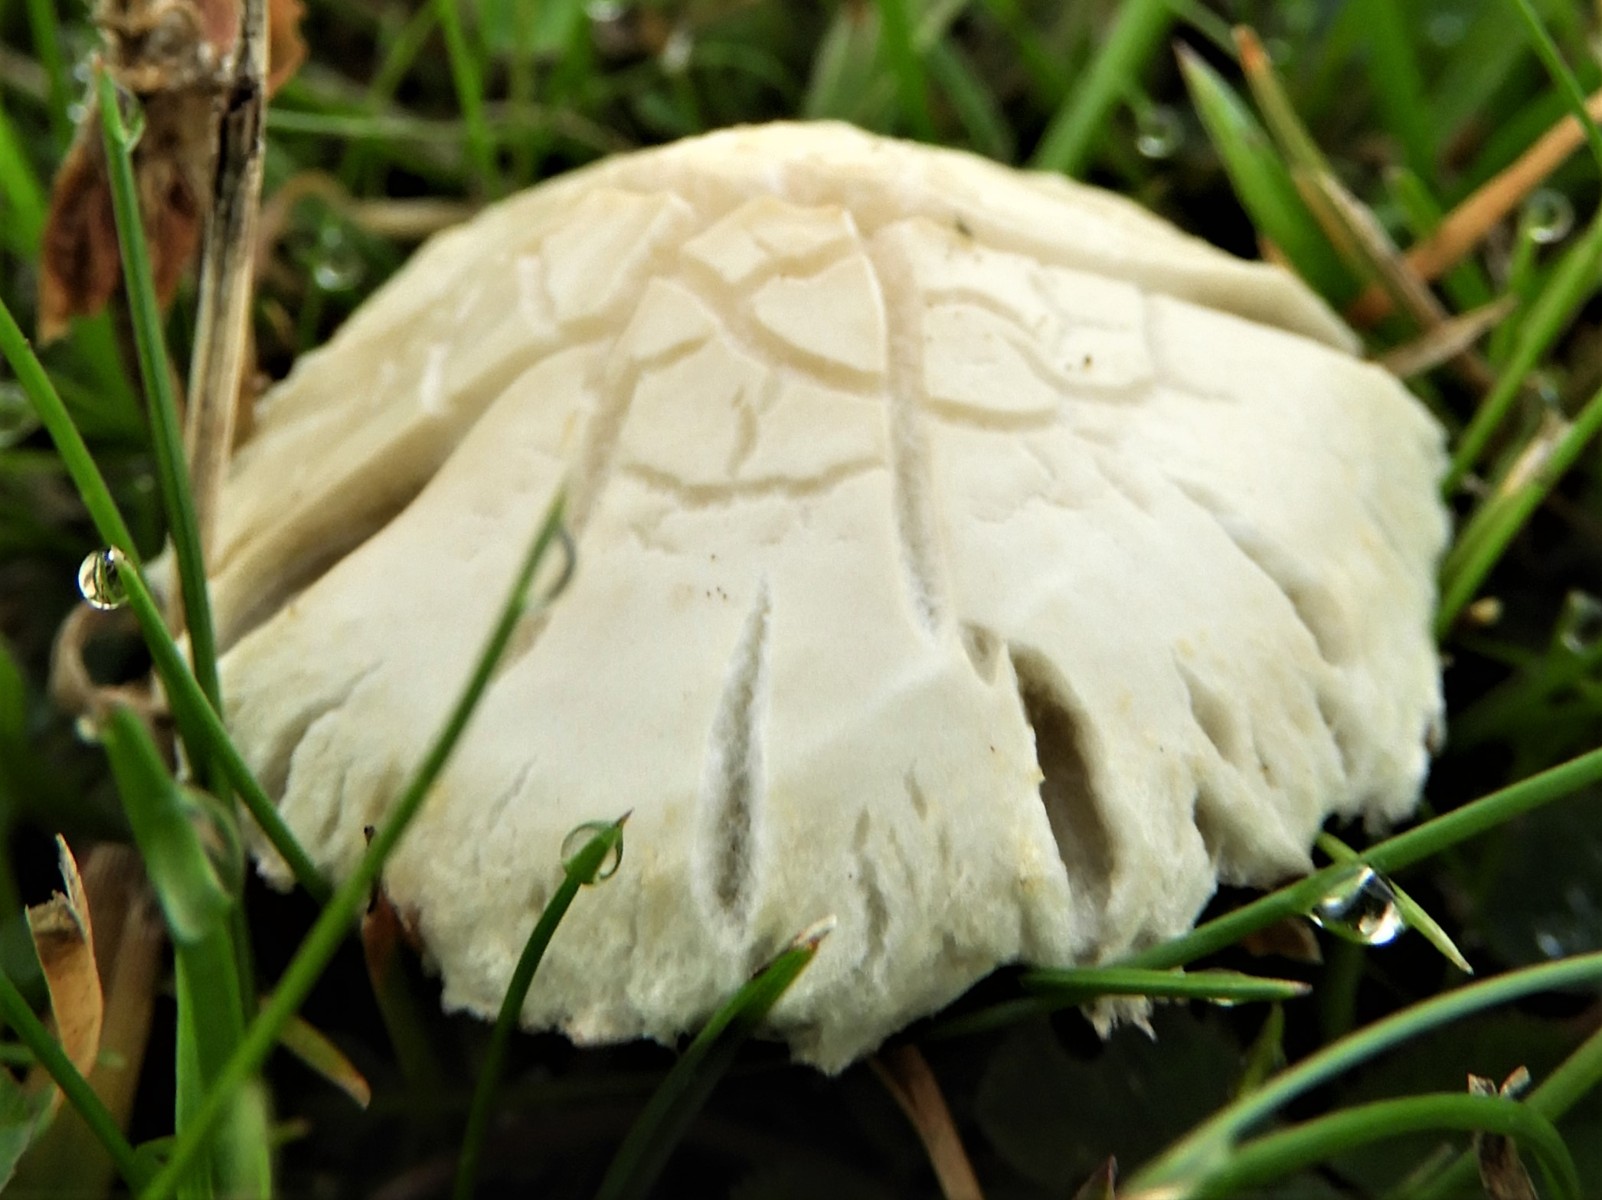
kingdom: Fungi
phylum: Basidiomycota
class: Agaricomycetes
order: Agaricales
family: Strophariaceae
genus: Agrocybe
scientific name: Agrocybe dura
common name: fastkødet agerhat
